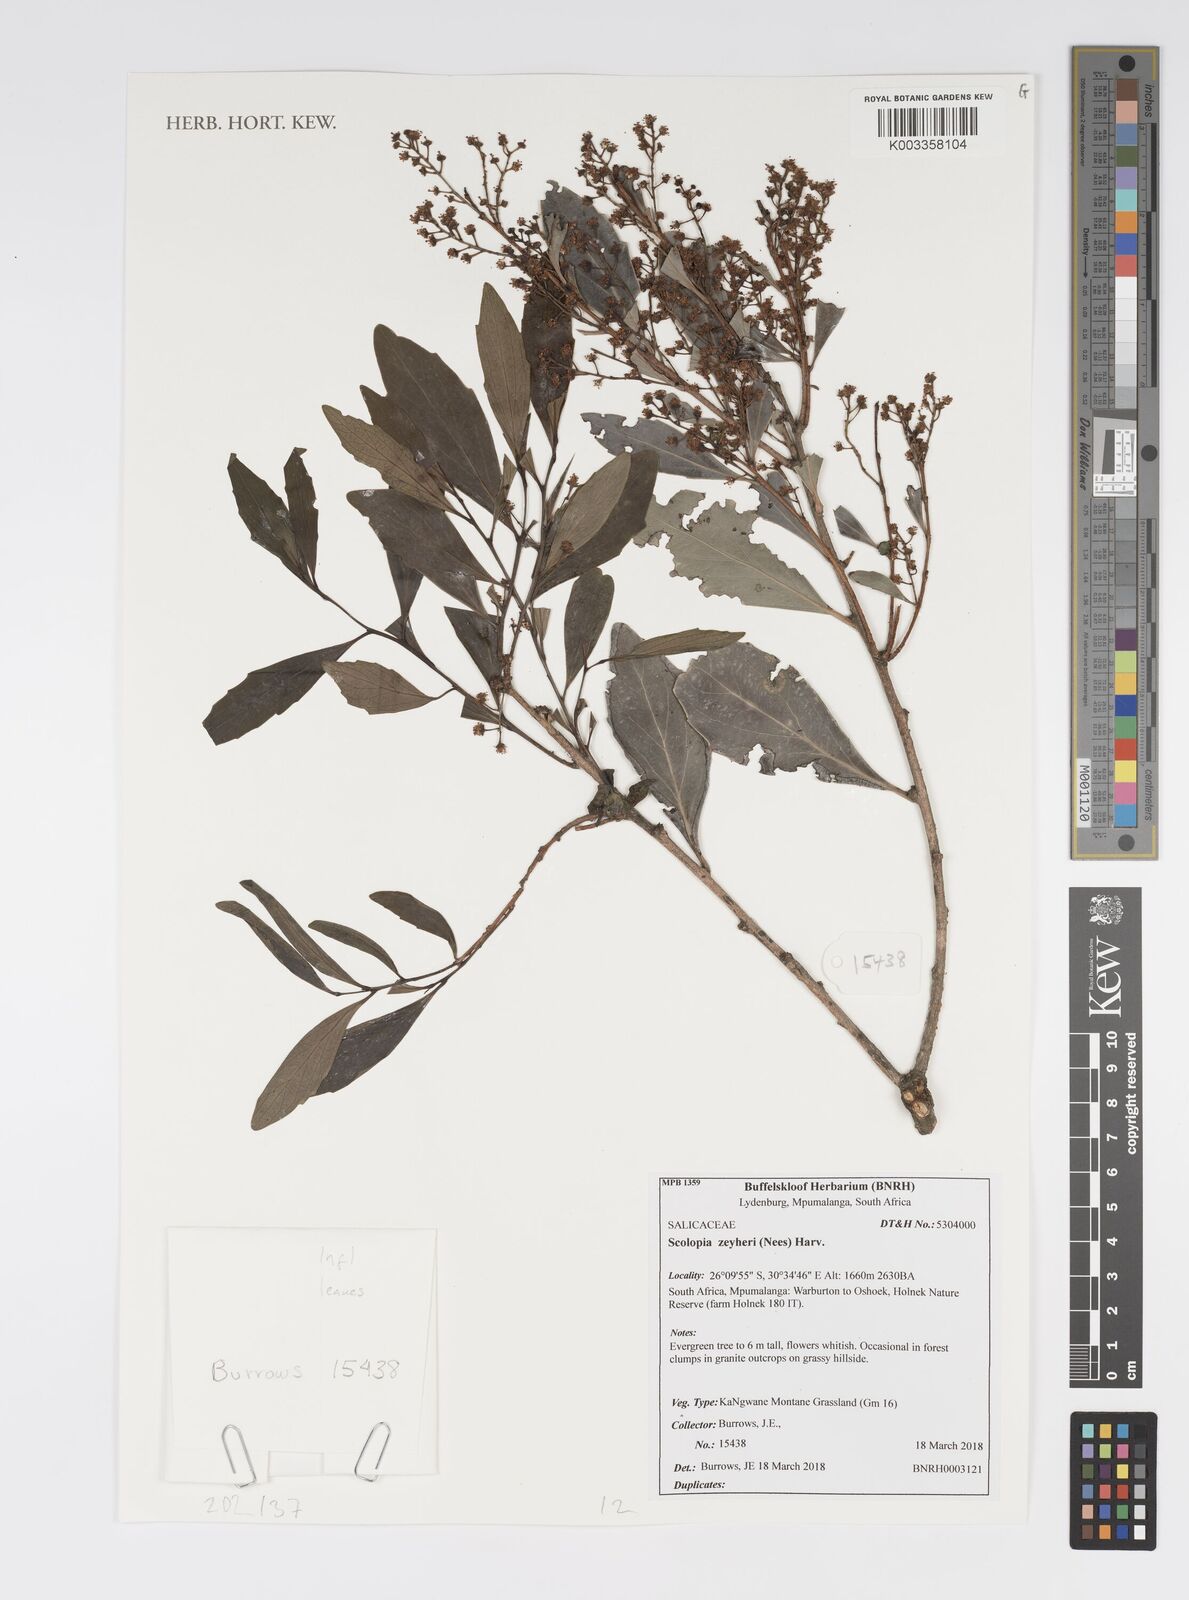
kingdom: Plantae
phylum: Tracheophyta
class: Magnoliopsida
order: Malpighiales
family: Salicaceae
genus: Scolopia
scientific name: Scolopia madagascariensis
